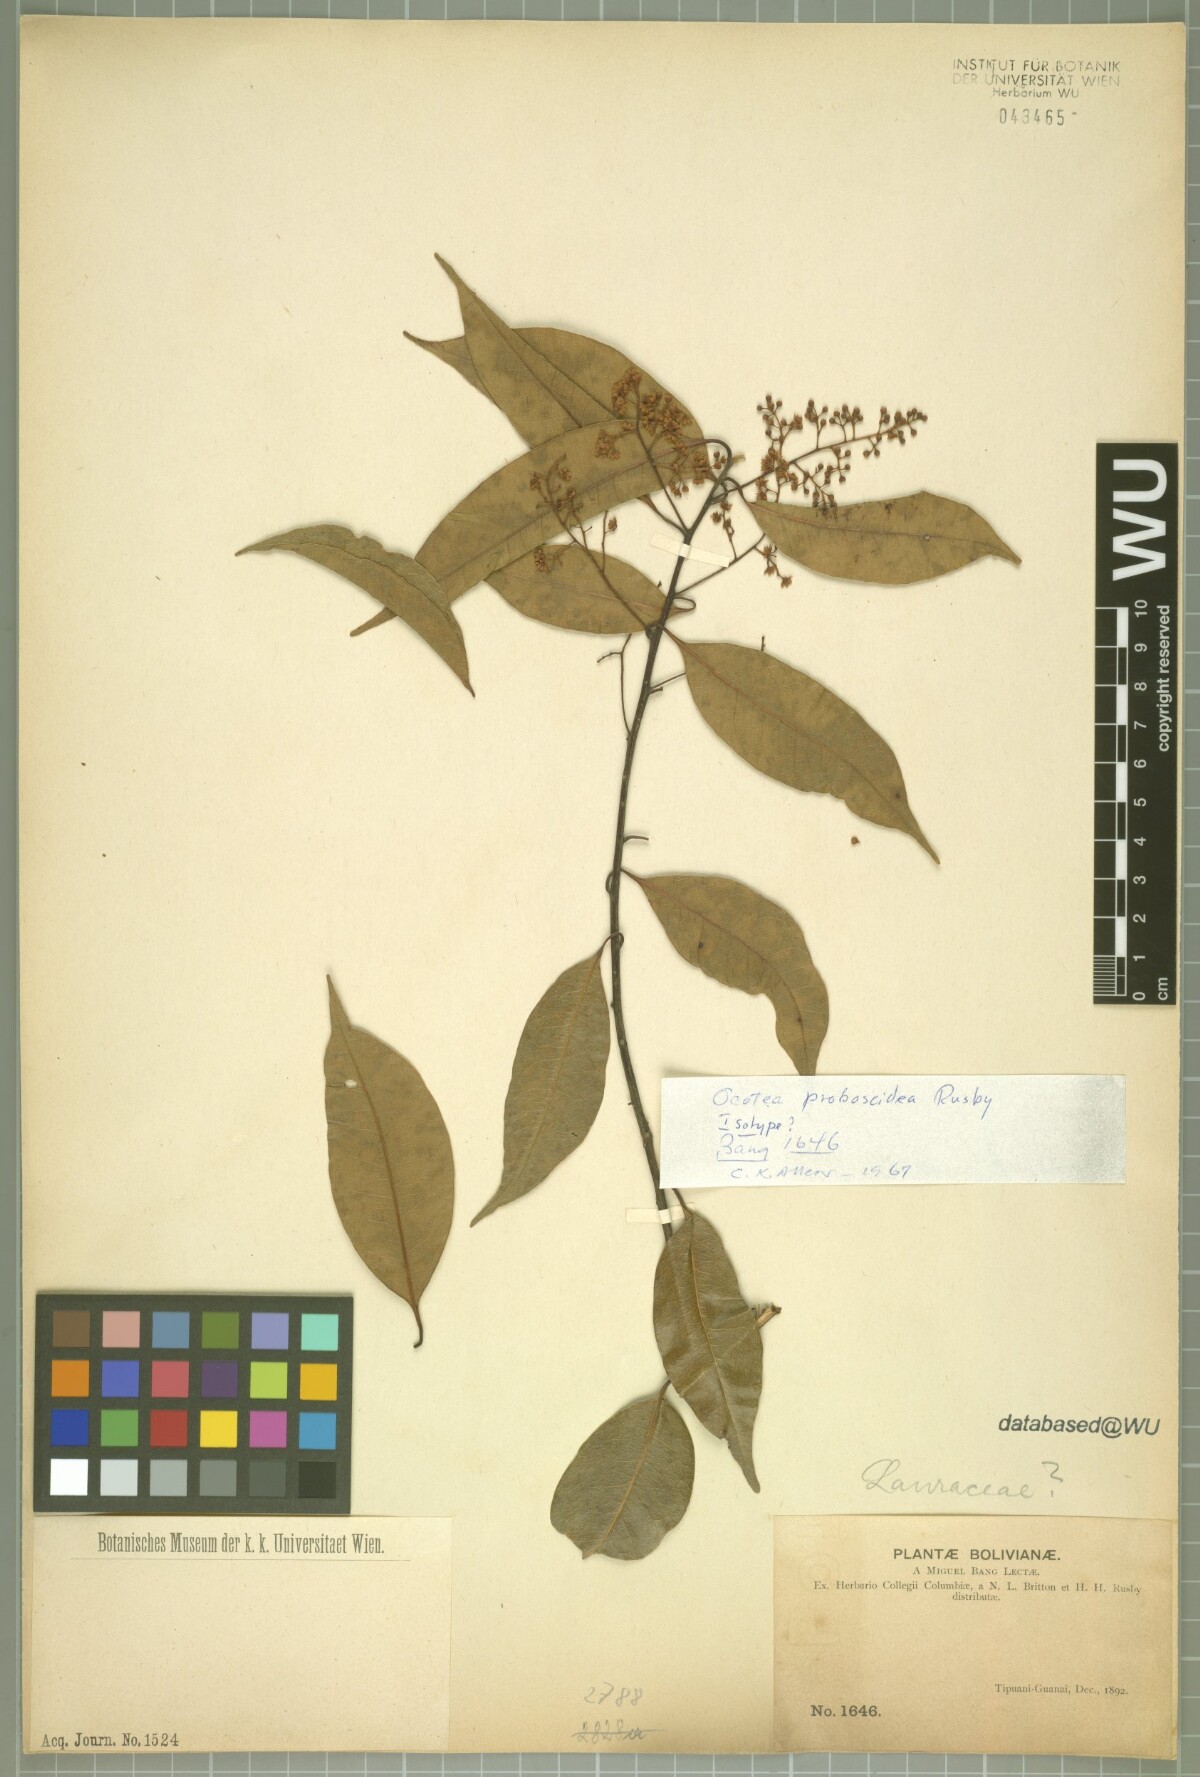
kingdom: Plantae
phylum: Tracheophyta
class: Magnoliopsida
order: Laurales
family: Lauraceae
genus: Mespilodaphne
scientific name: Mespilodaphne corymbosa
